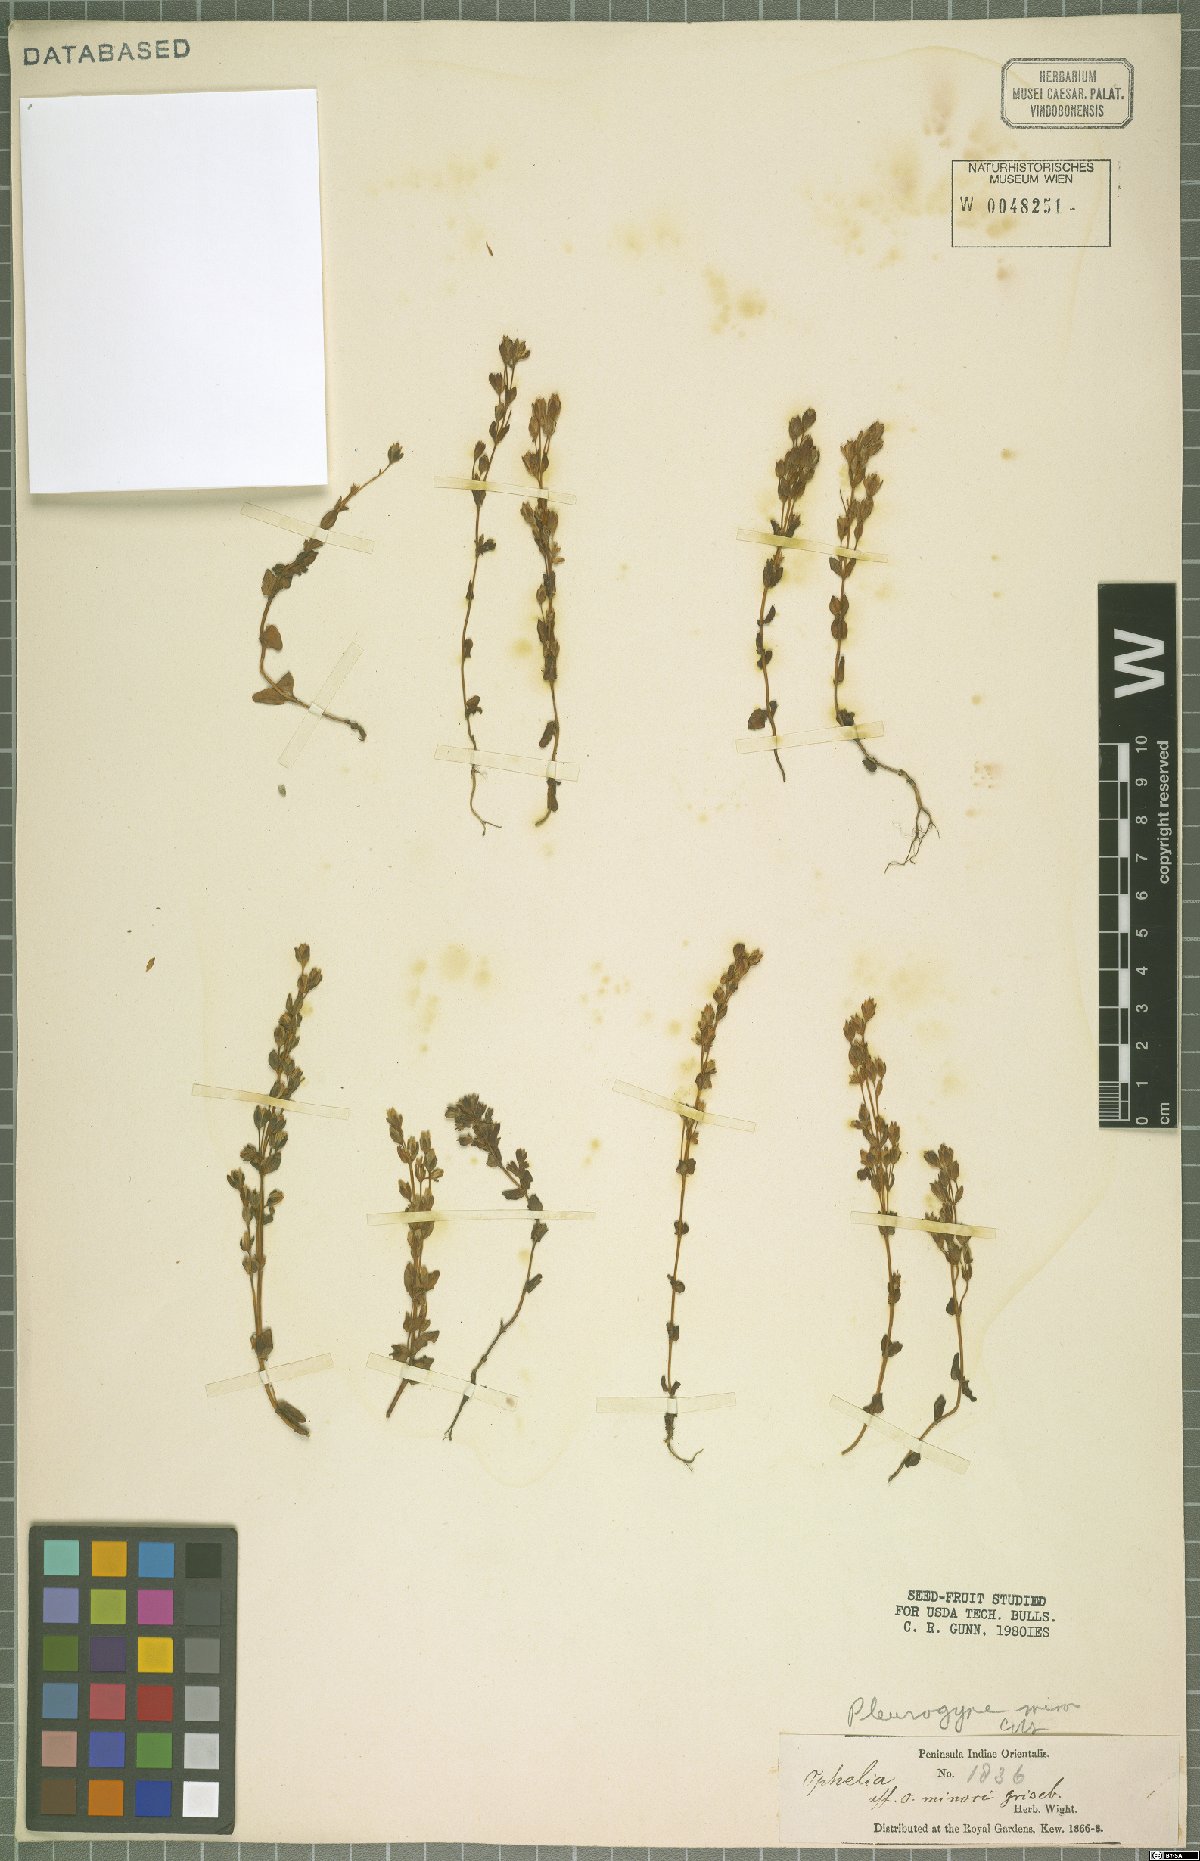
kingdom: Plantae
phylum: Tracheophyta
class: Magnoliopsida
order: Gentianales
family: Gentianaceae
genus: Lomatogonium
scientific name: Lomatogonium minus
